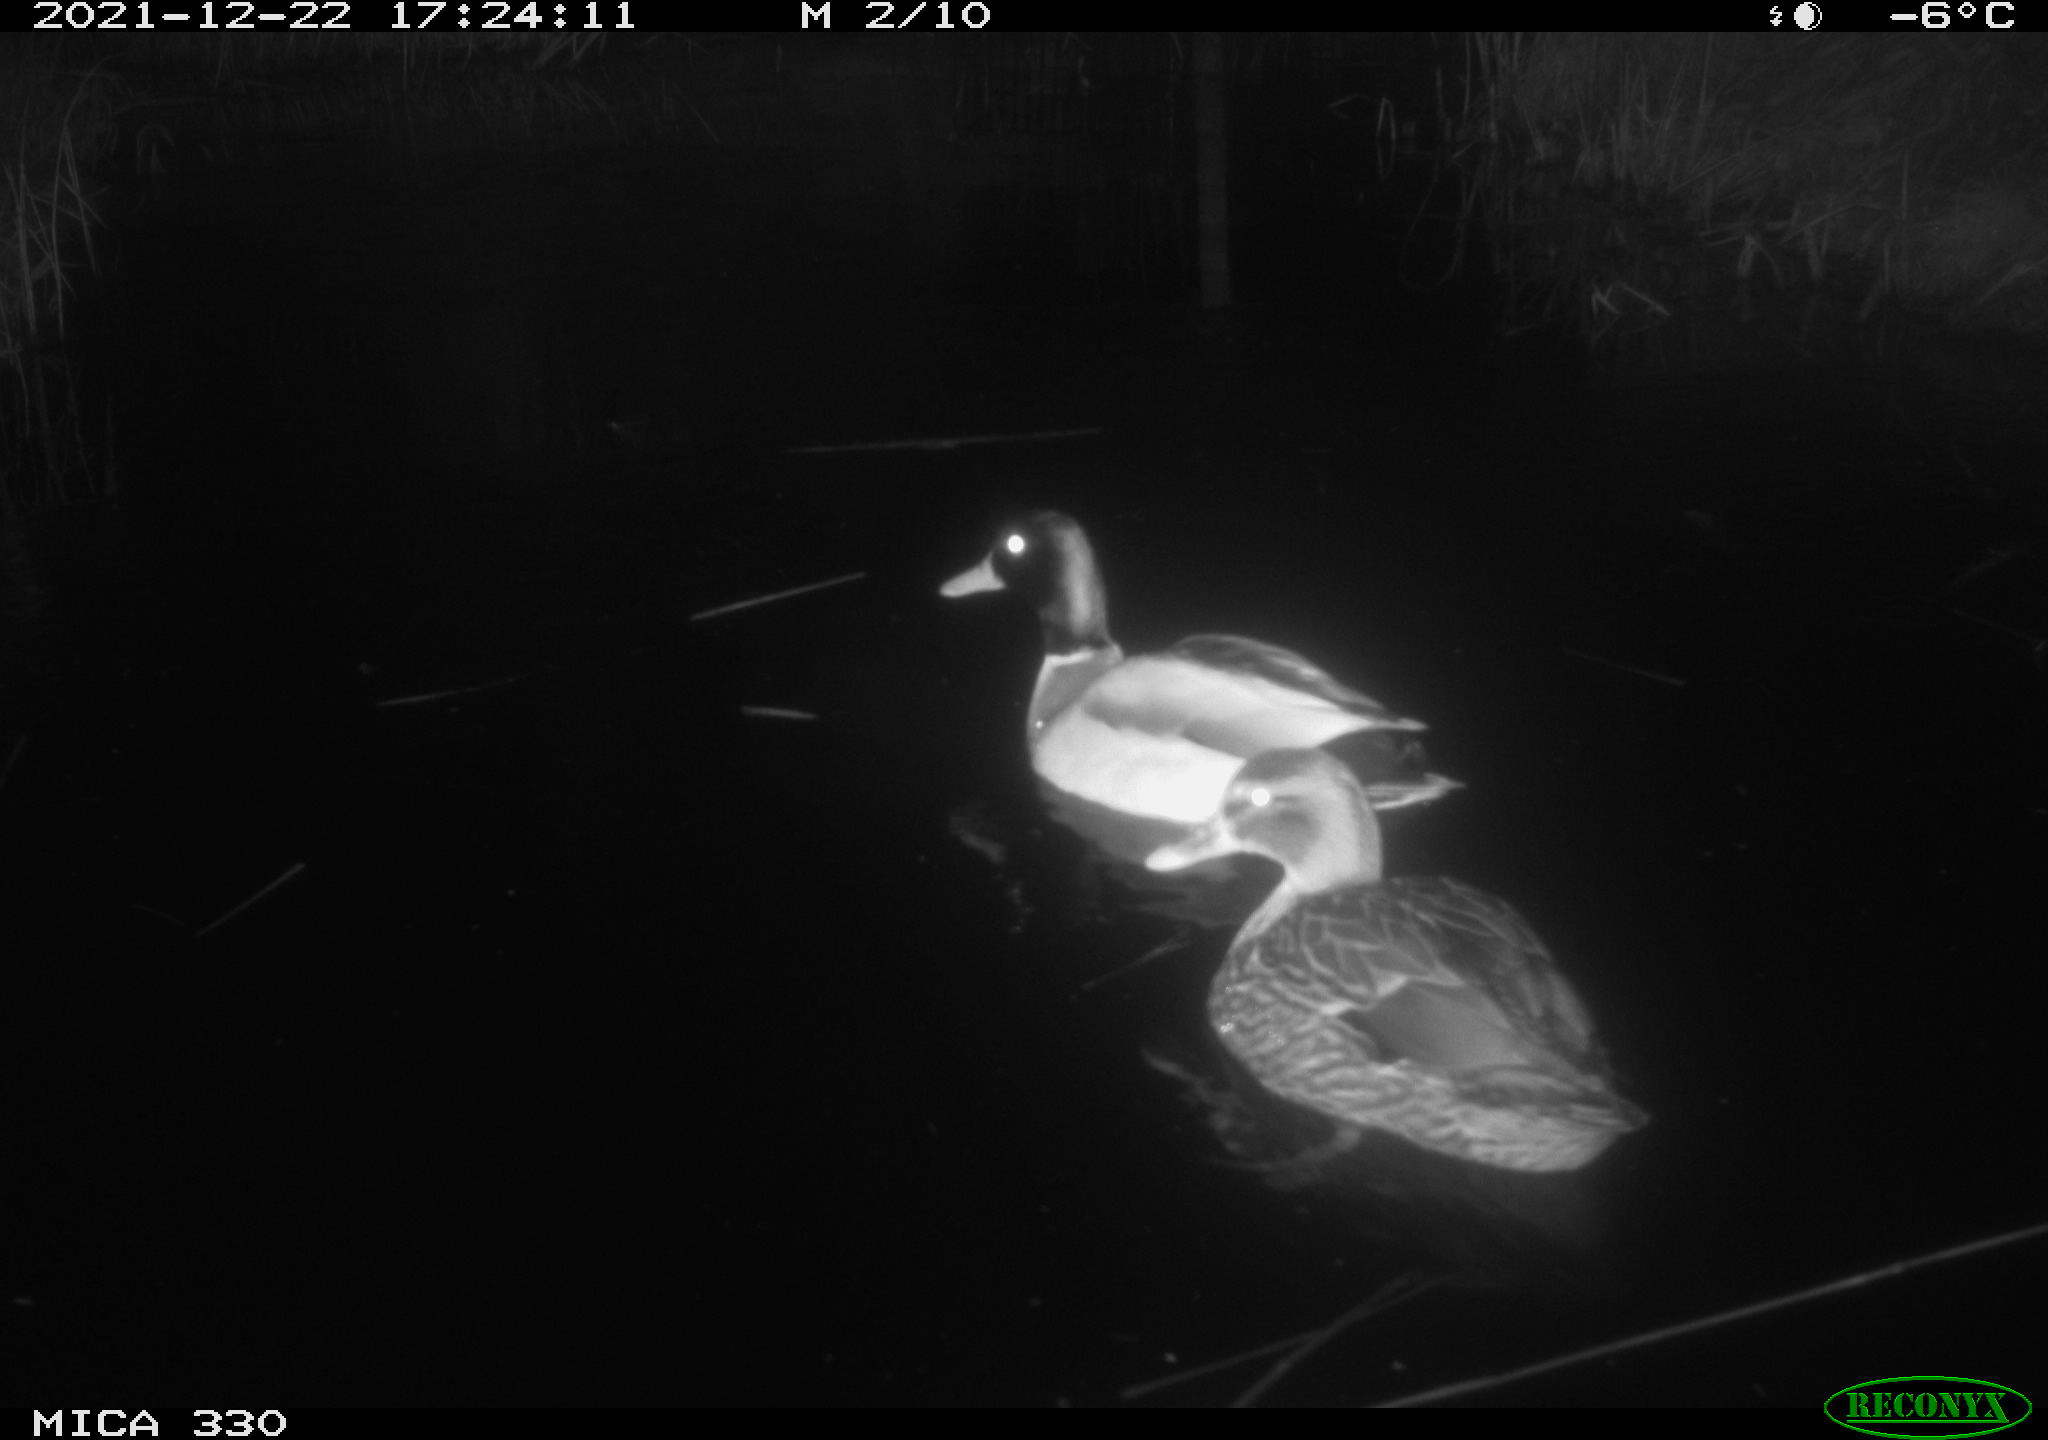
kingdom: Animalia
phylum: Chordata
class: Aves
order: Anseriformes
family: Anatidae
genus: Anas
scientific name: Anas platyrhynchos
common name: Mallard
